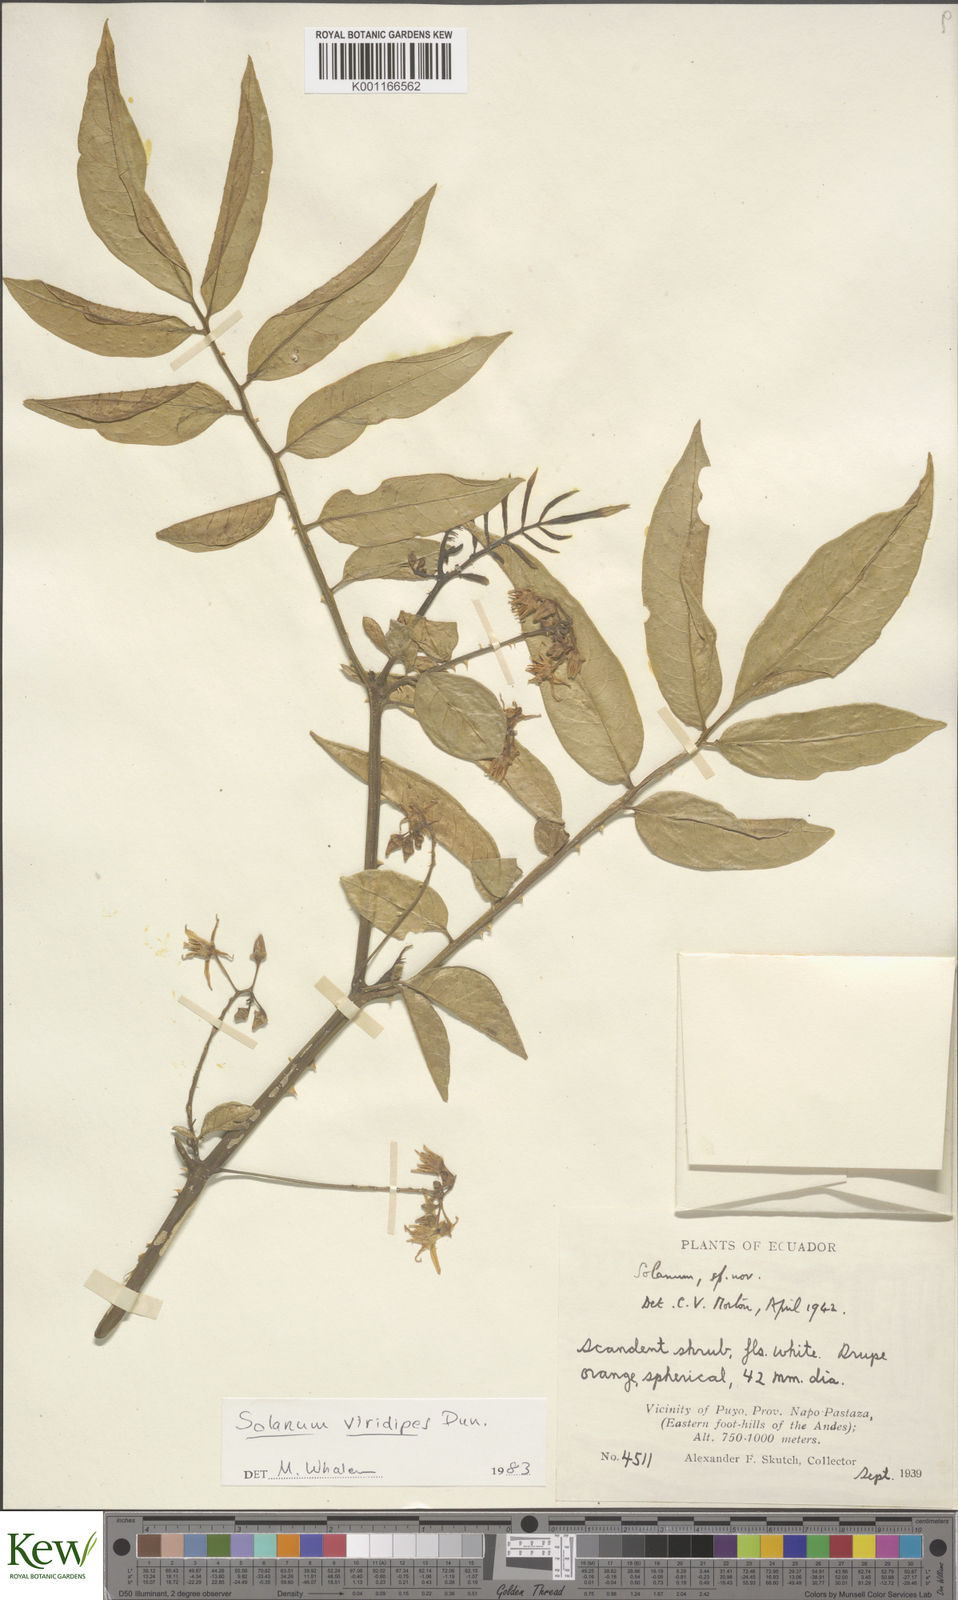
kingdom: Plantae
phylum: Tracheophyta
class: Magnoliopsida
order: Solanales
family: Solanaceae
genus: Solanum
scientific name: Solanum alternatopinnatum
